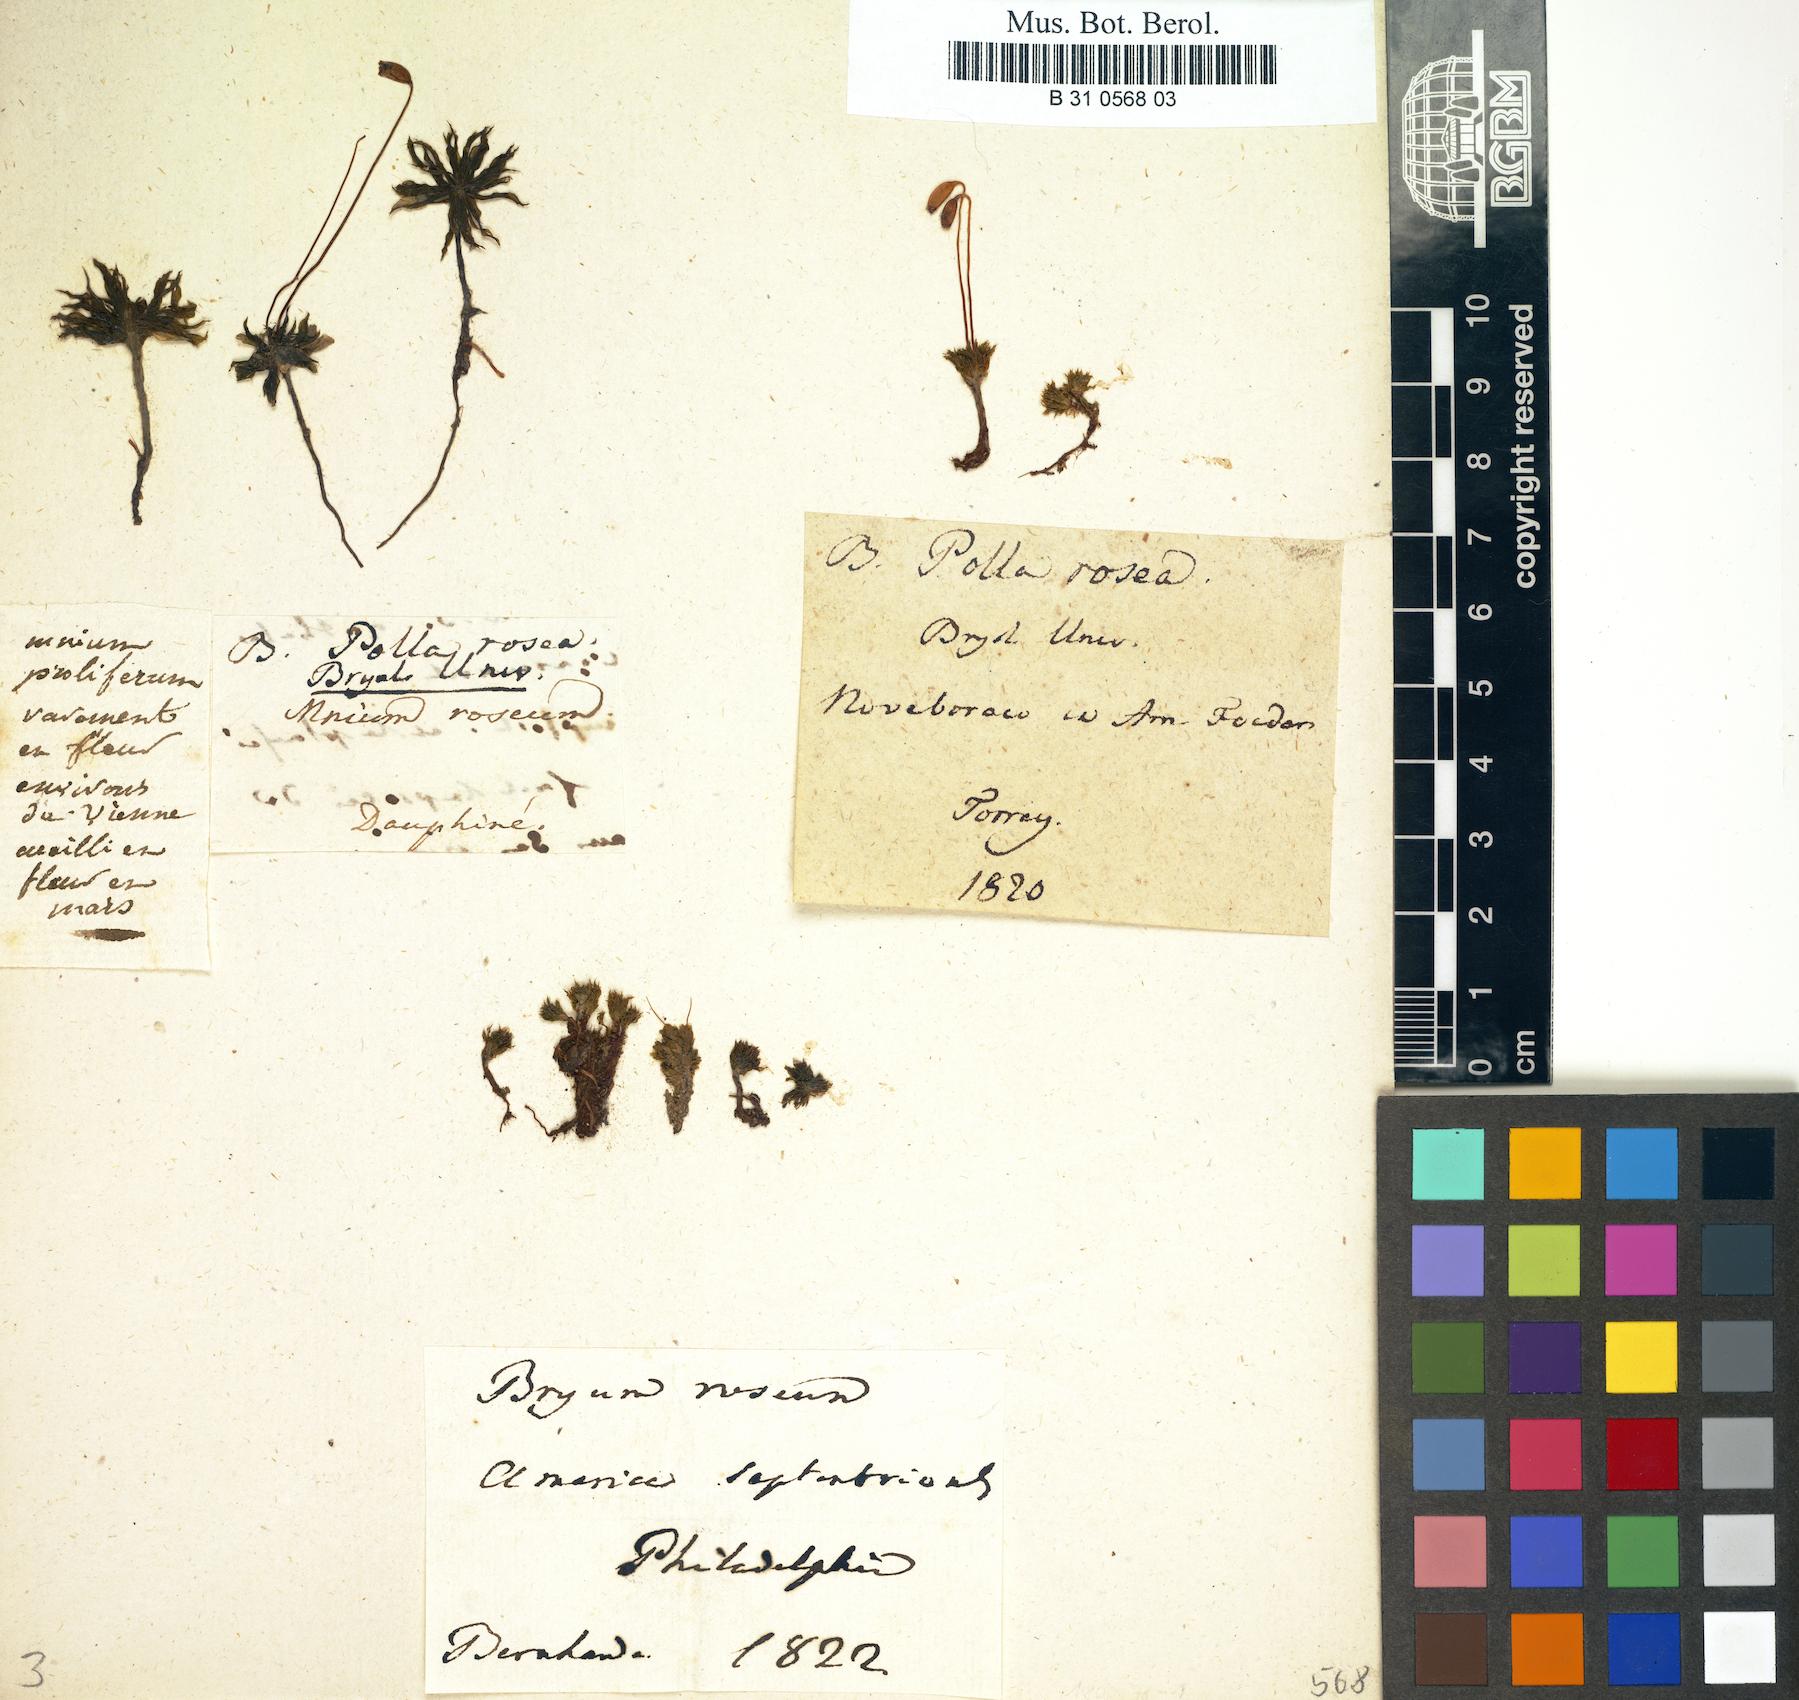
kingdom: Plantae
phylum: Bryophyta
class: Bryopsida
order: Bryales
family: Bryaceae
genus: Rhodobryum
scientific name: Rhodobryum roseum
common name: Rose-moss
